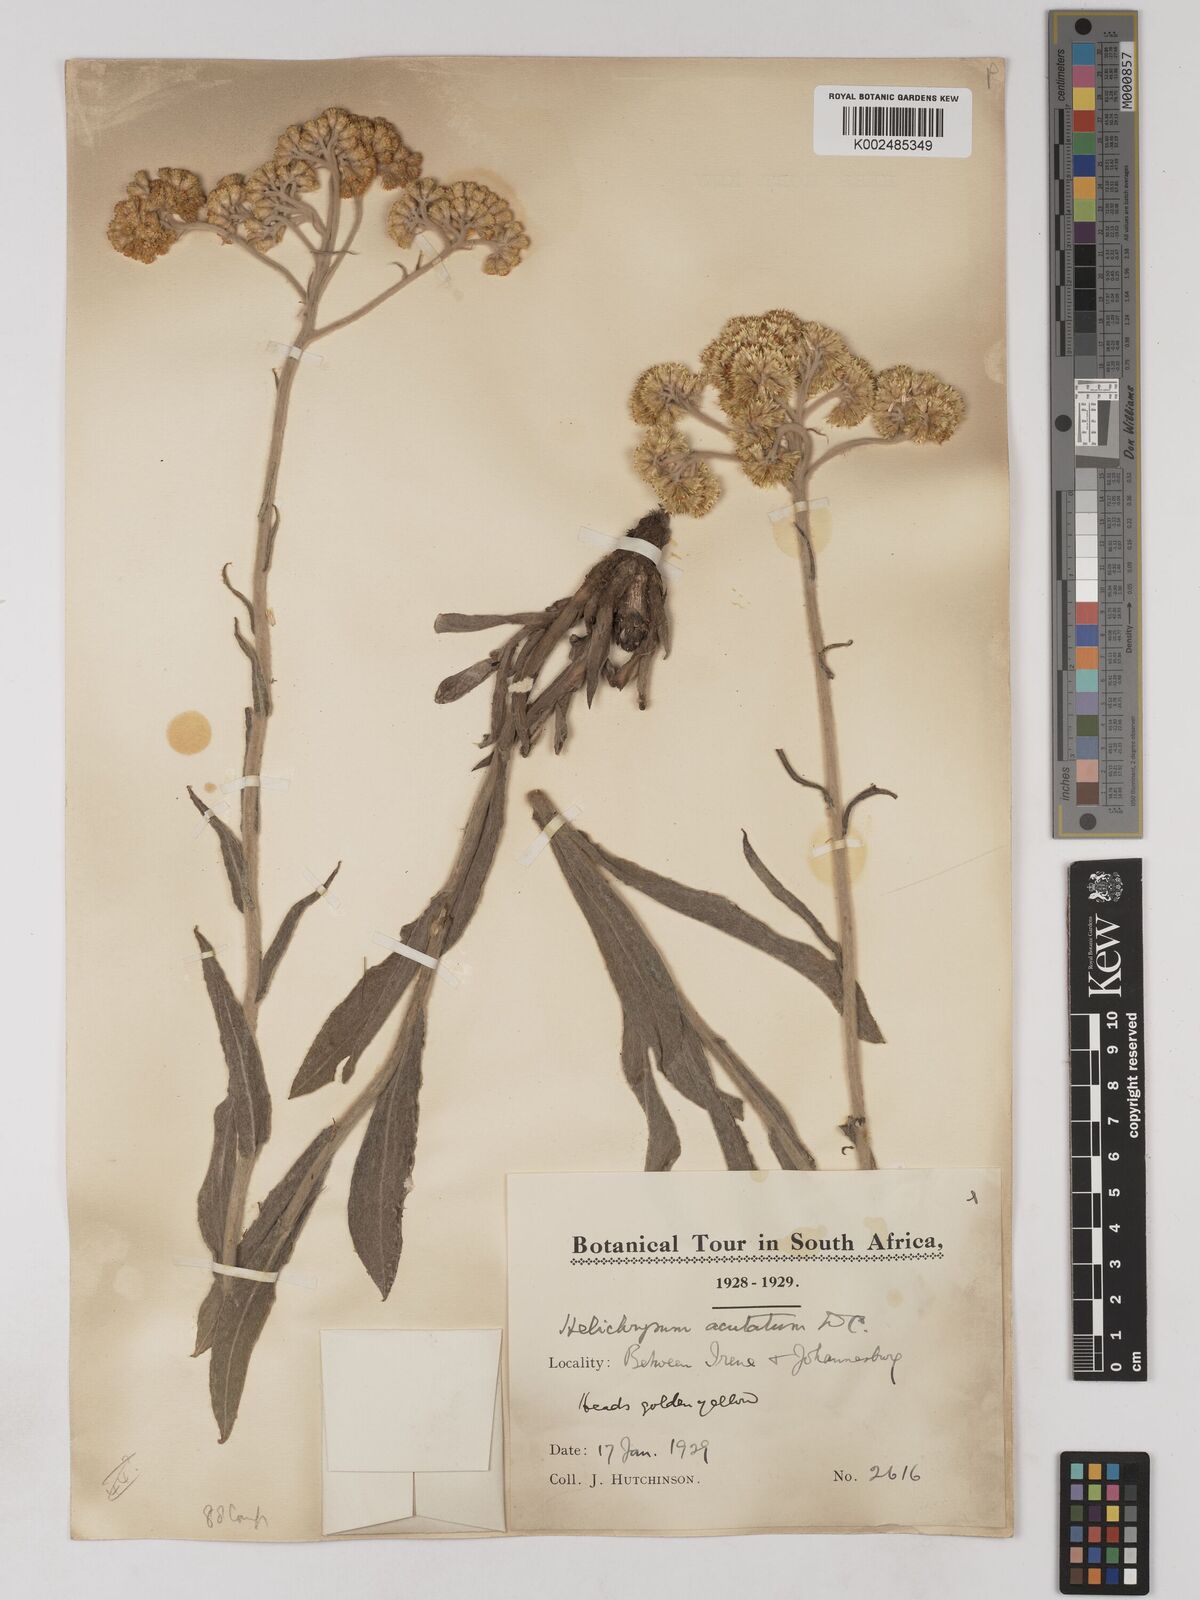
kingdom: Plantae
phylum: Tracheophyta
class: Magnoliopsida
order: Asterales
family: Asteraceae
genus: Helichrysum
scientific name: Helichrysum acutatum
